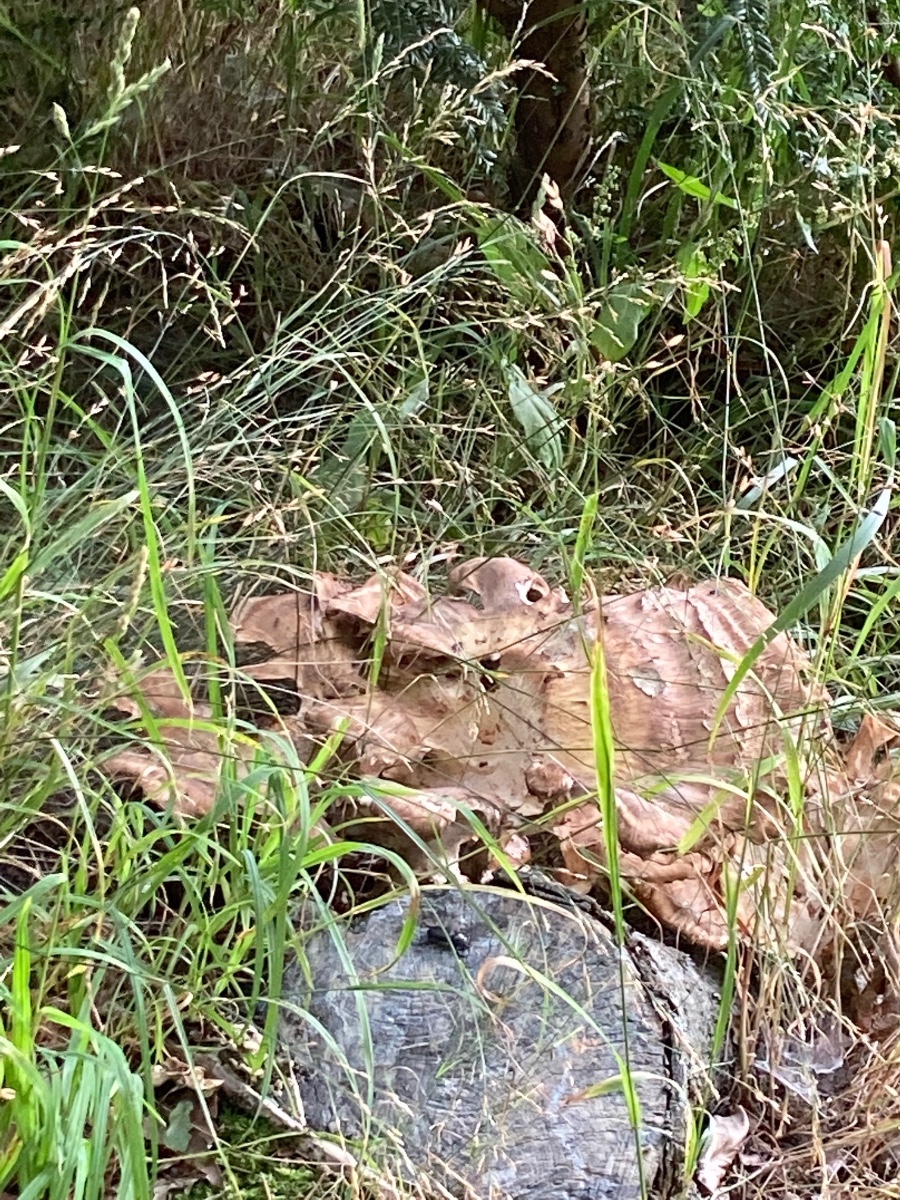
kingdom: Fungi
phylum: Basidiomycota
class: Agaricomycetes
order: Polyporales
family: Meripilaceae
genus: Meripilus
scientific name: Meripilus giganteus
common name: kæmpeporesvamp
